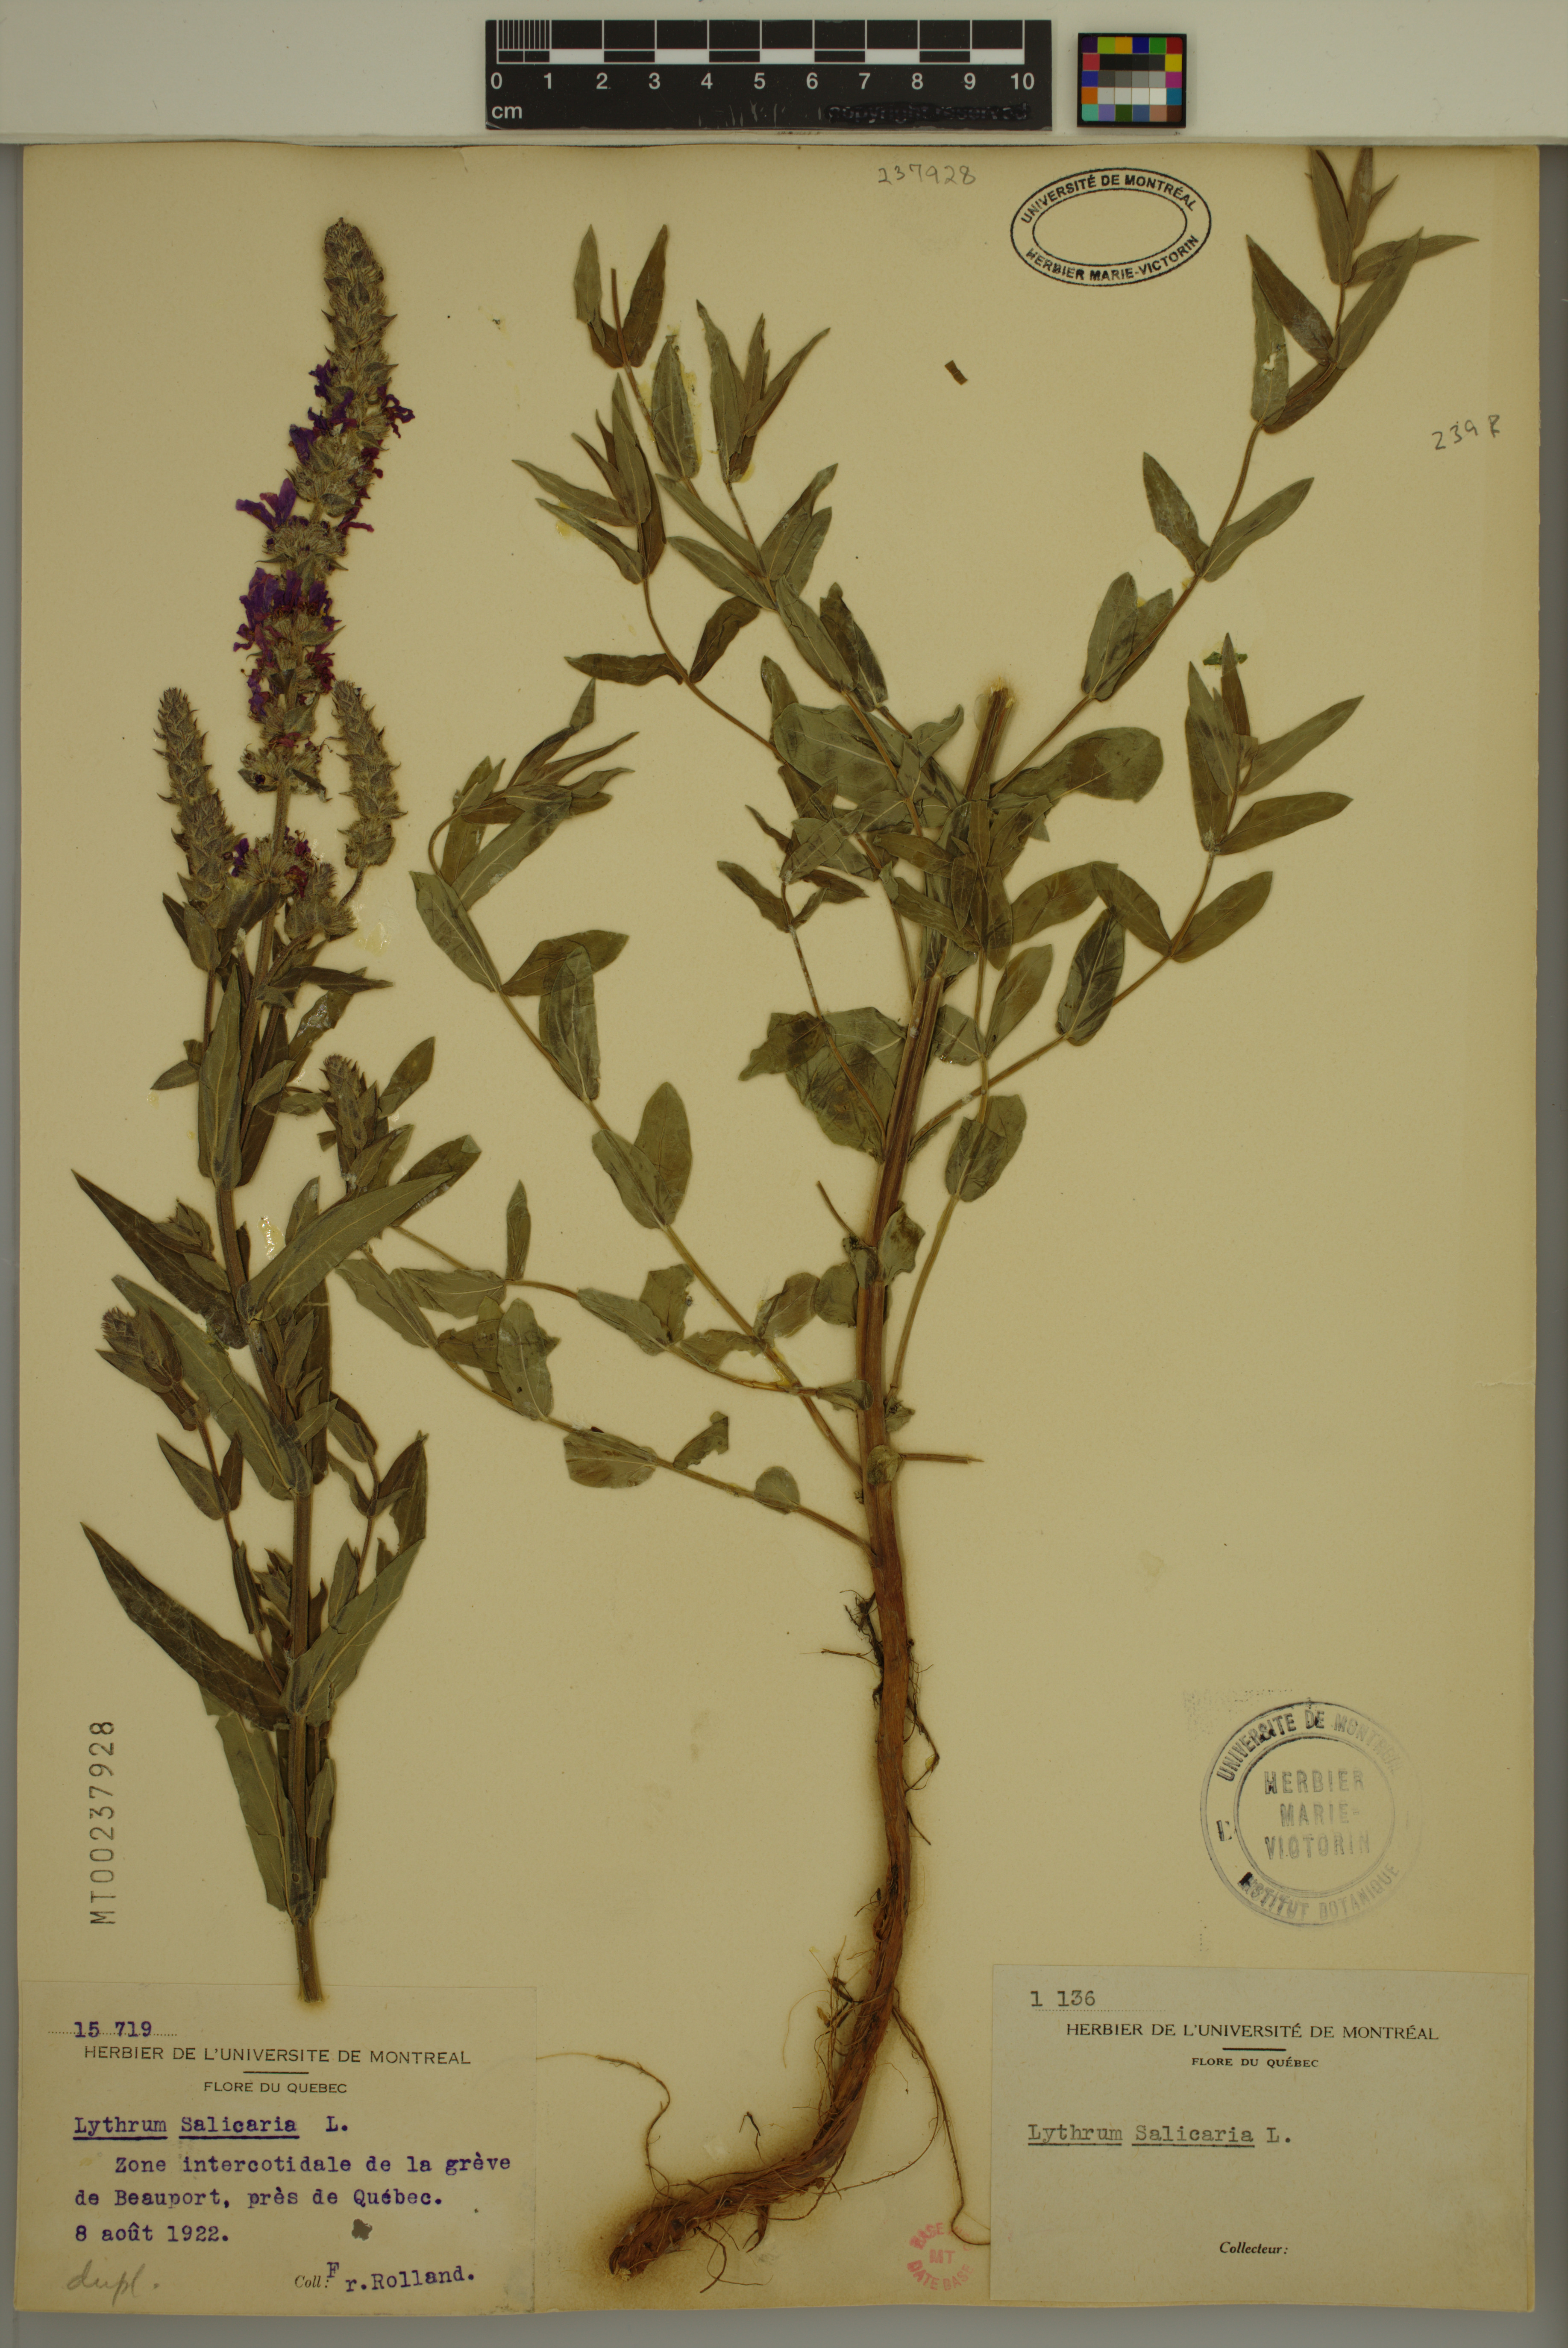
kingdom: Plantae
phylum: Tracheophyta
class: Magnoliopsida
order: Myrtales
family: Lythraceae
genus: Lythrum
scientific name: Lythrum salicaria
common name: Purple loosestrife
